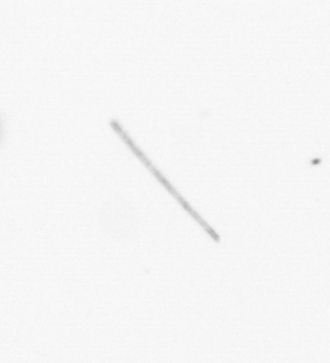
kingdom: Chromista
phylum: Ochrophyta
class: Bacillariophyceae
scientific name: Bacillariophyceae
